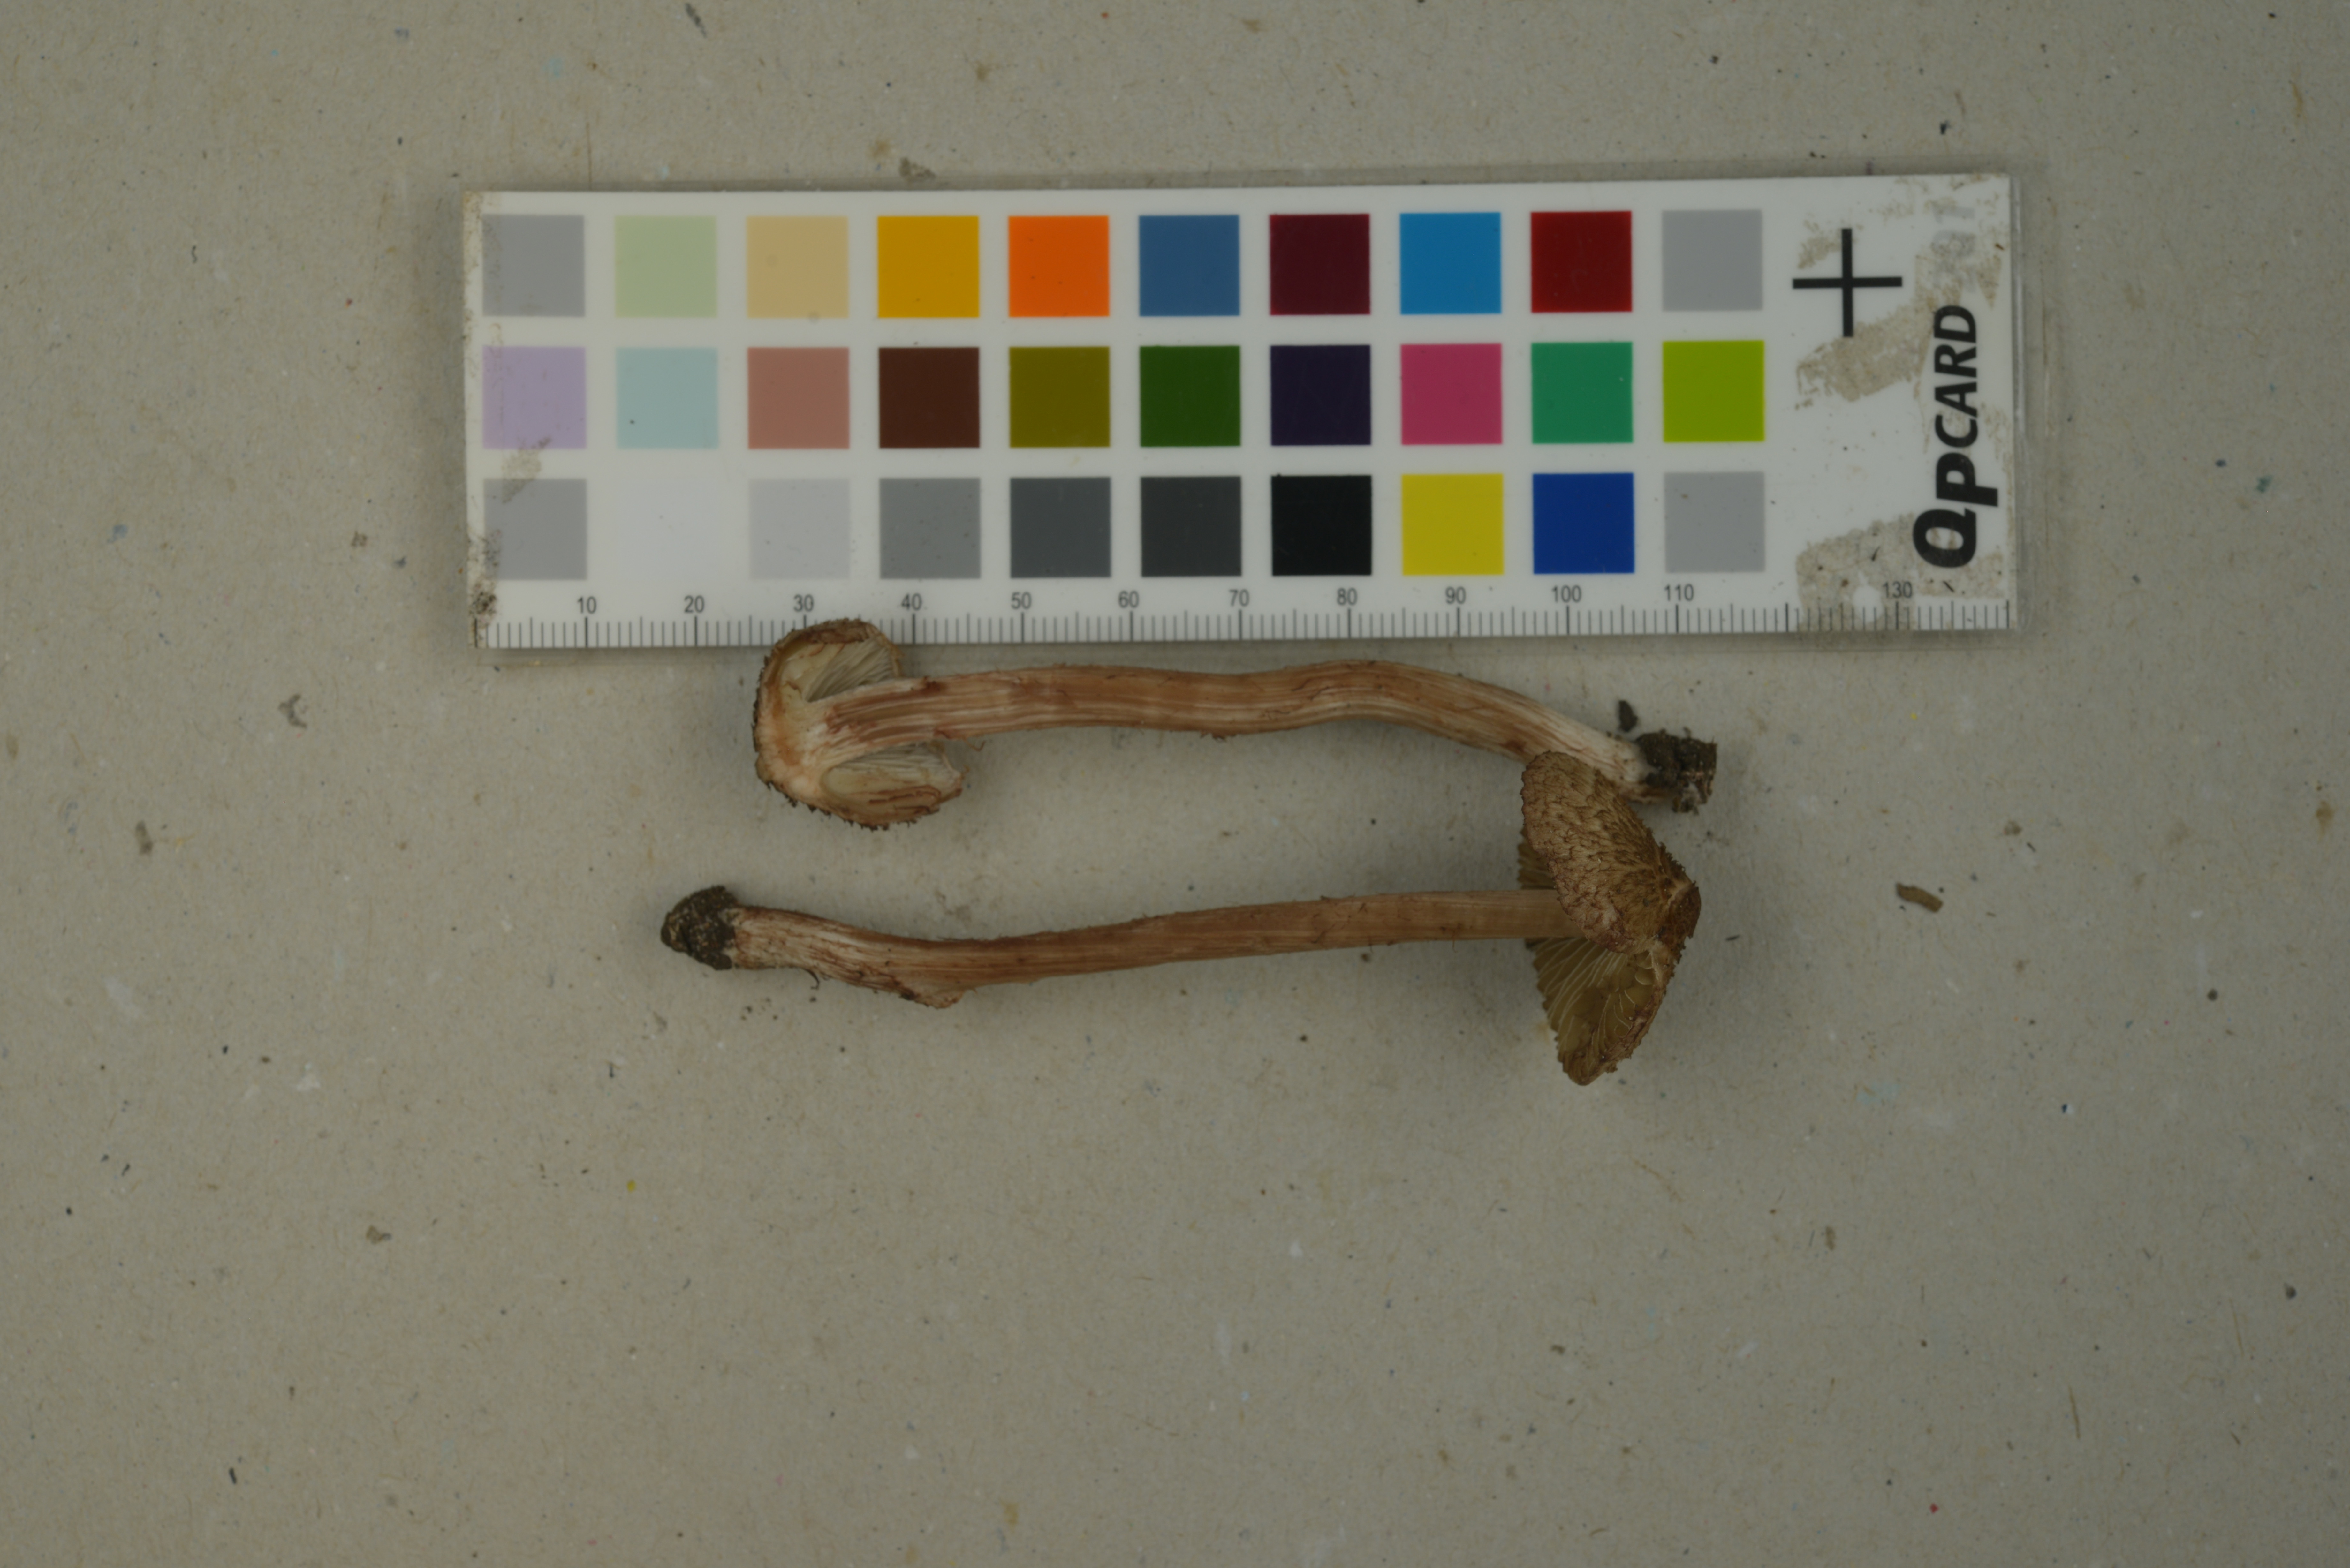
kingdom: Fungi
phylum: Basidiomycota
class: Agaricomycetes
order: Agaricales
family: Inocybaceae
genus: Inosperma
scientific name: Inosperma cervicolor
